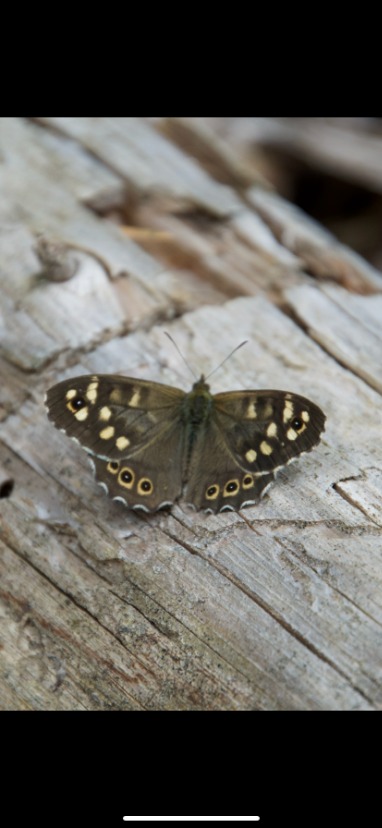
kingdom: Animalia
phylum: Arthropoda
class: Insecta
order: Lepidoptera
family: Nymphalidae
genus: Pararge
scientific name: Pararge aegeria
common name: Skovrandøje
